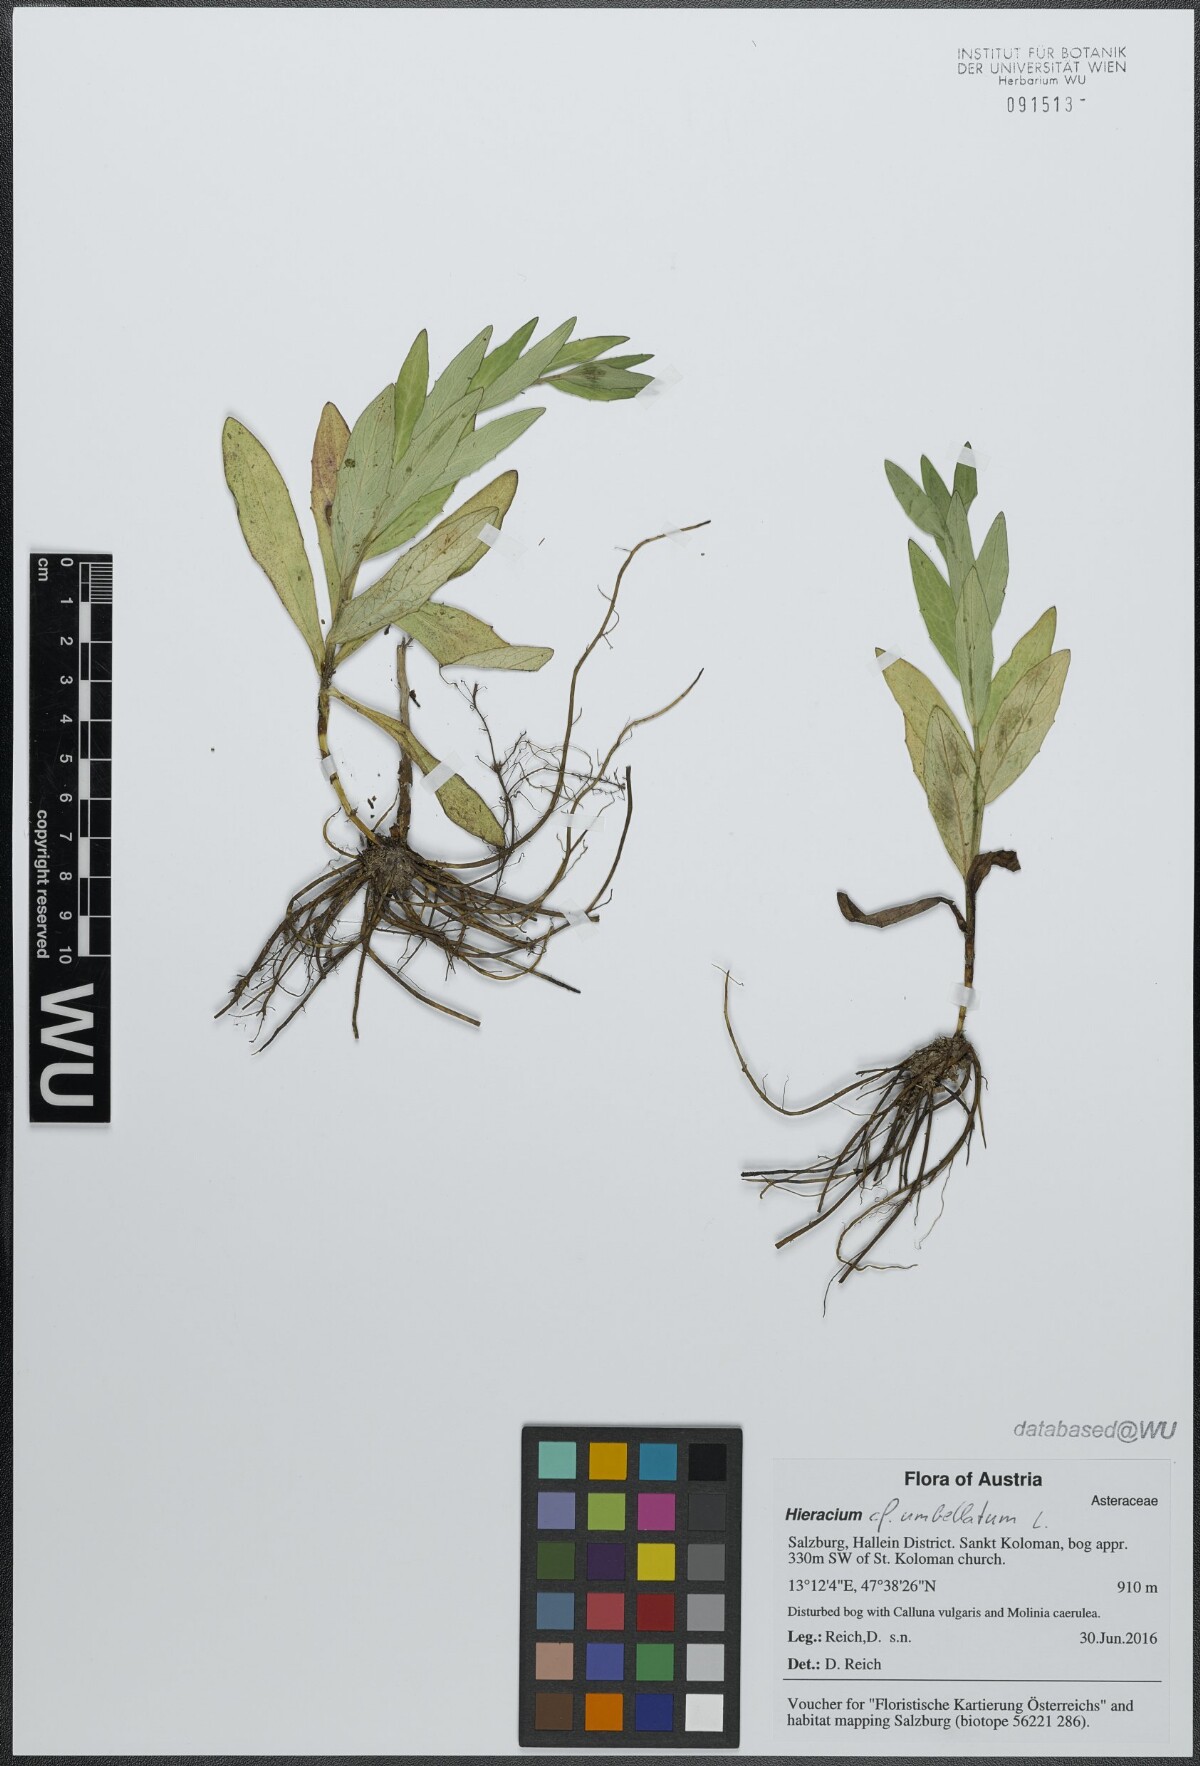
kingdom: Plantae
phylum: Tracheophyta
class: Magnoliopsida
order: Asterales
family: Asteraceae
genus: Hieracium
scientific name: Hieracium umbellatum
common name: Northern hawkweed
